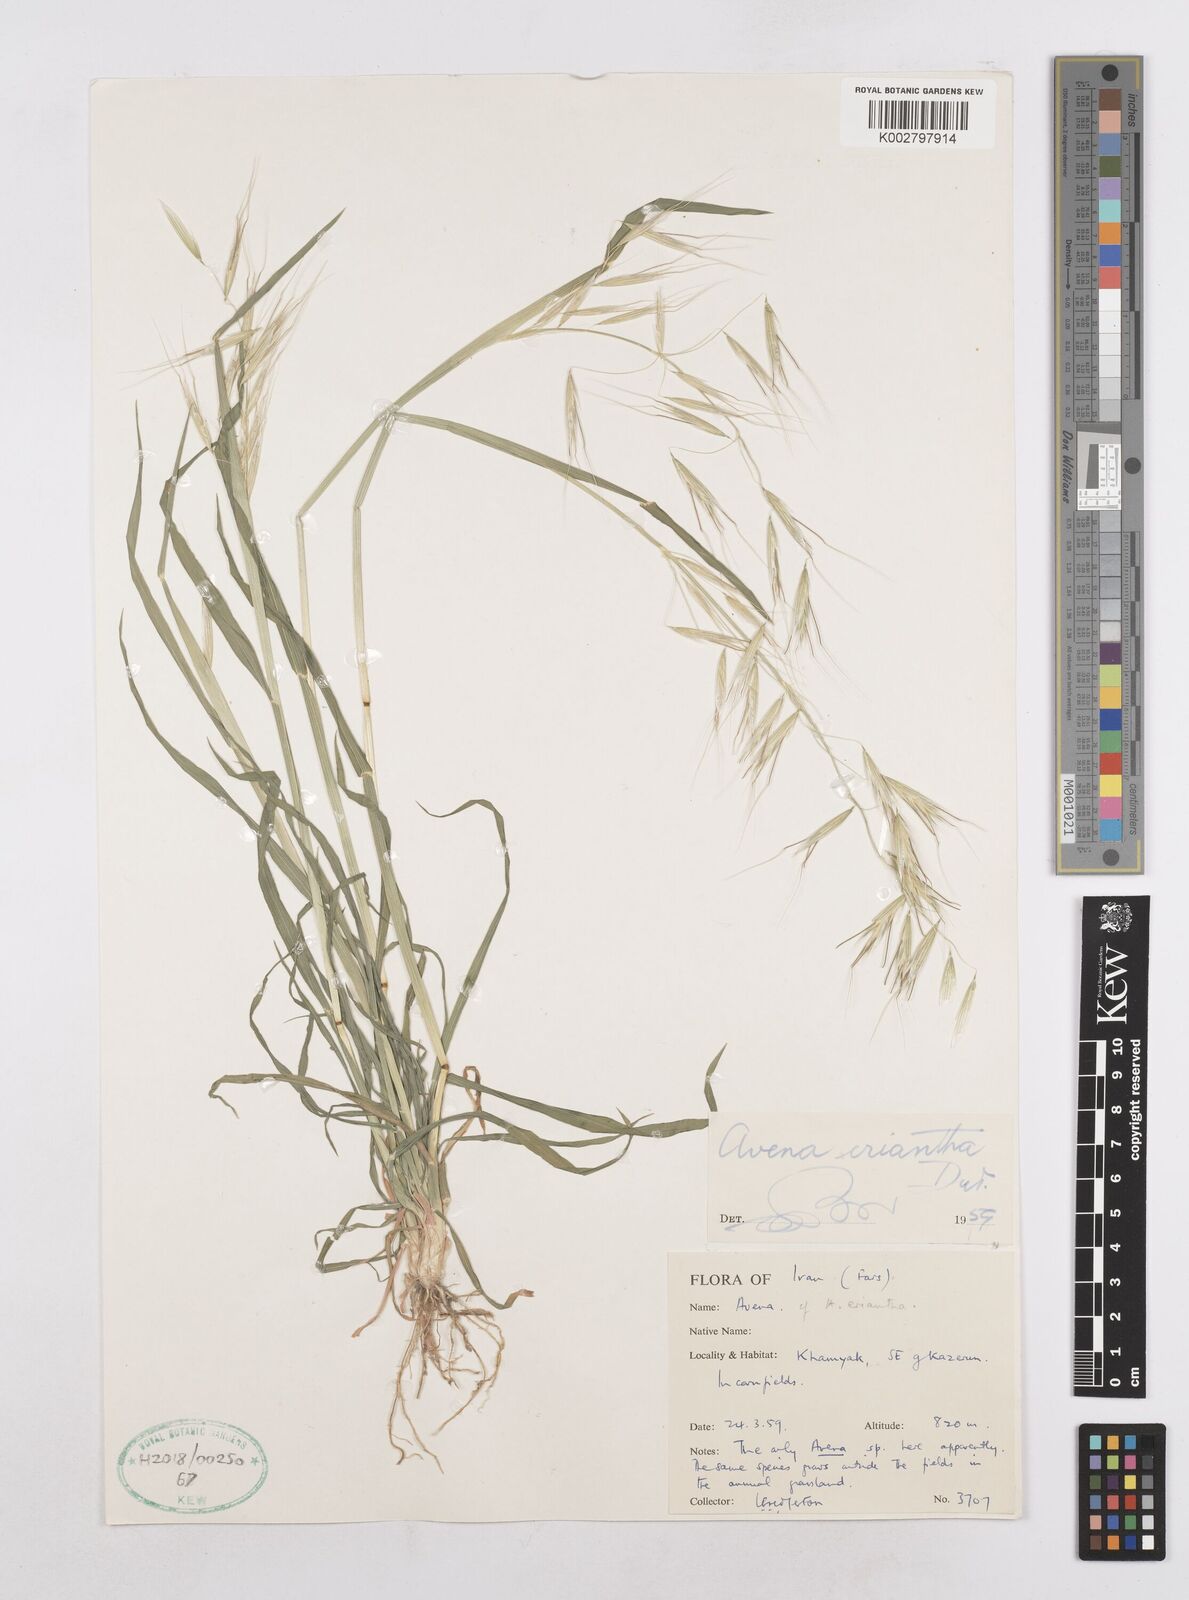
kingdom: Plantae
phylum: Tracheophyta
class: Liliopsida
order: Poales
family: Poaceae
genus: Avena
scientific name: Avena eriantha
